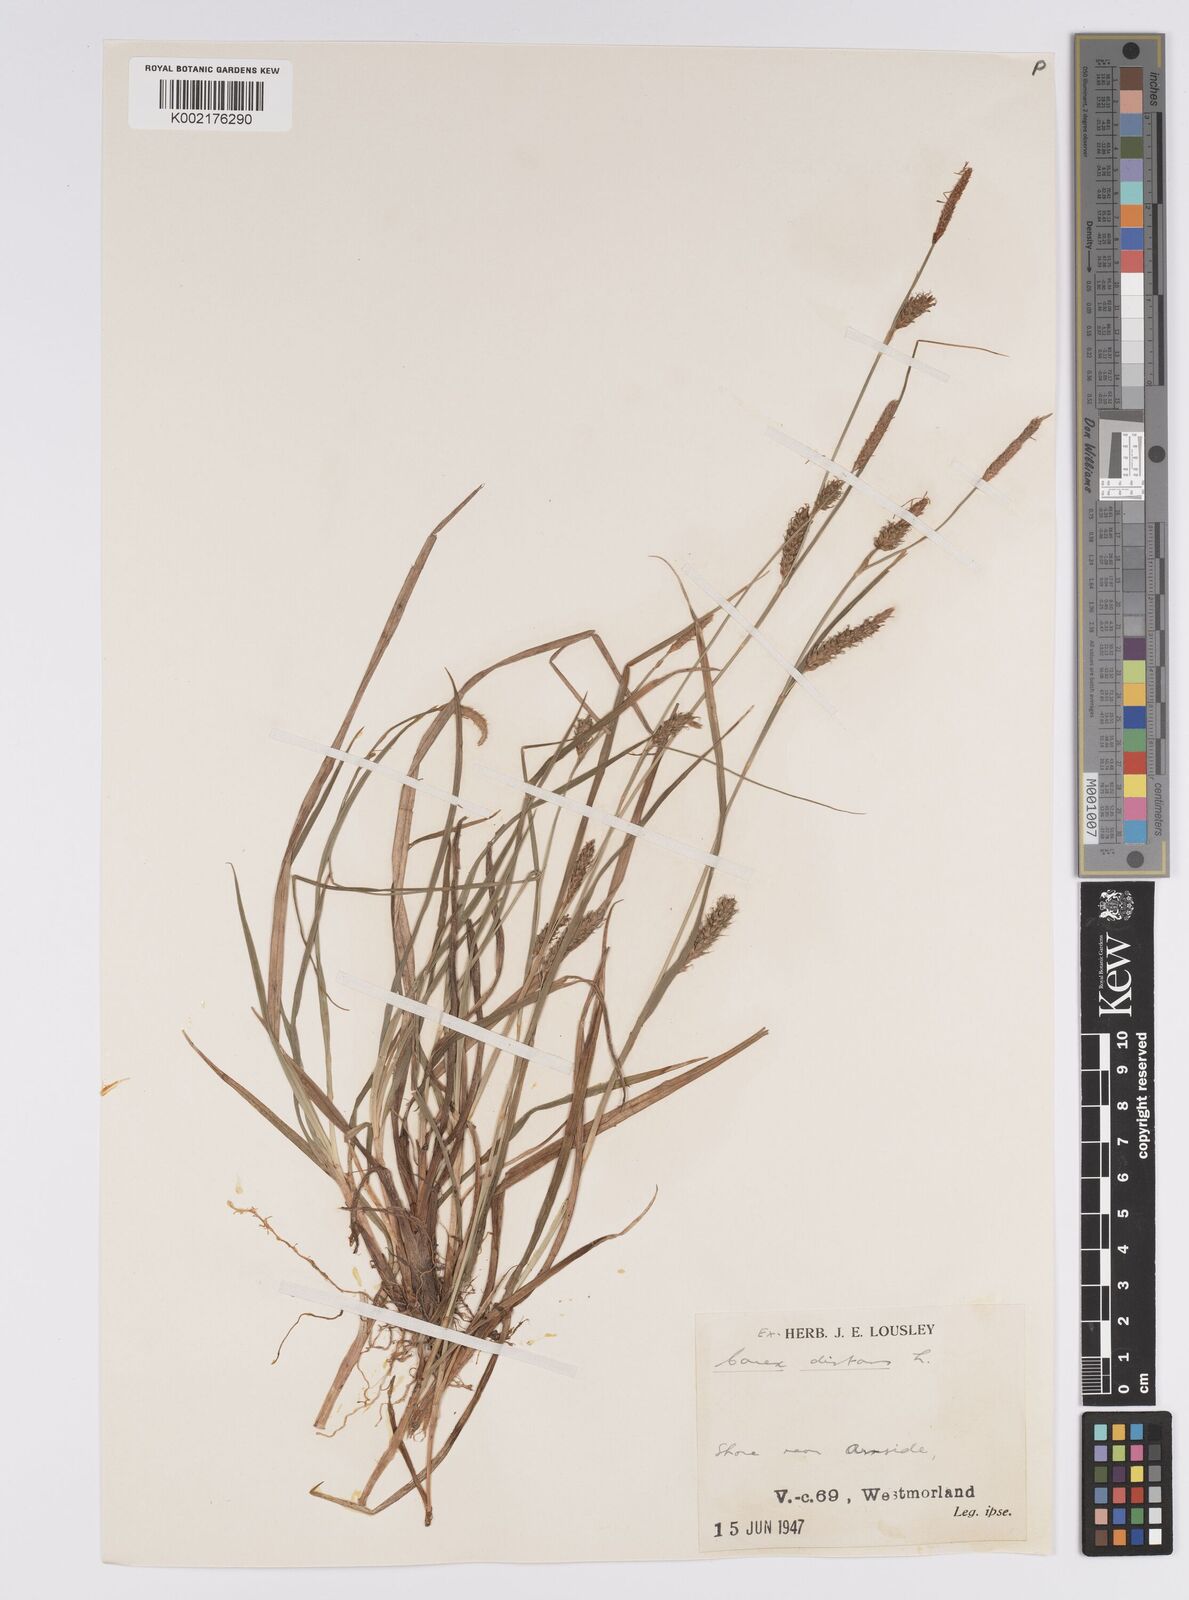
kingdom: Plantae
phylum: Tracheophyta
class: Liliopsida
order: Poales
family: Cyperaceae
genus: Carex
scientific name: Carex distans
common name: Distant sedge
